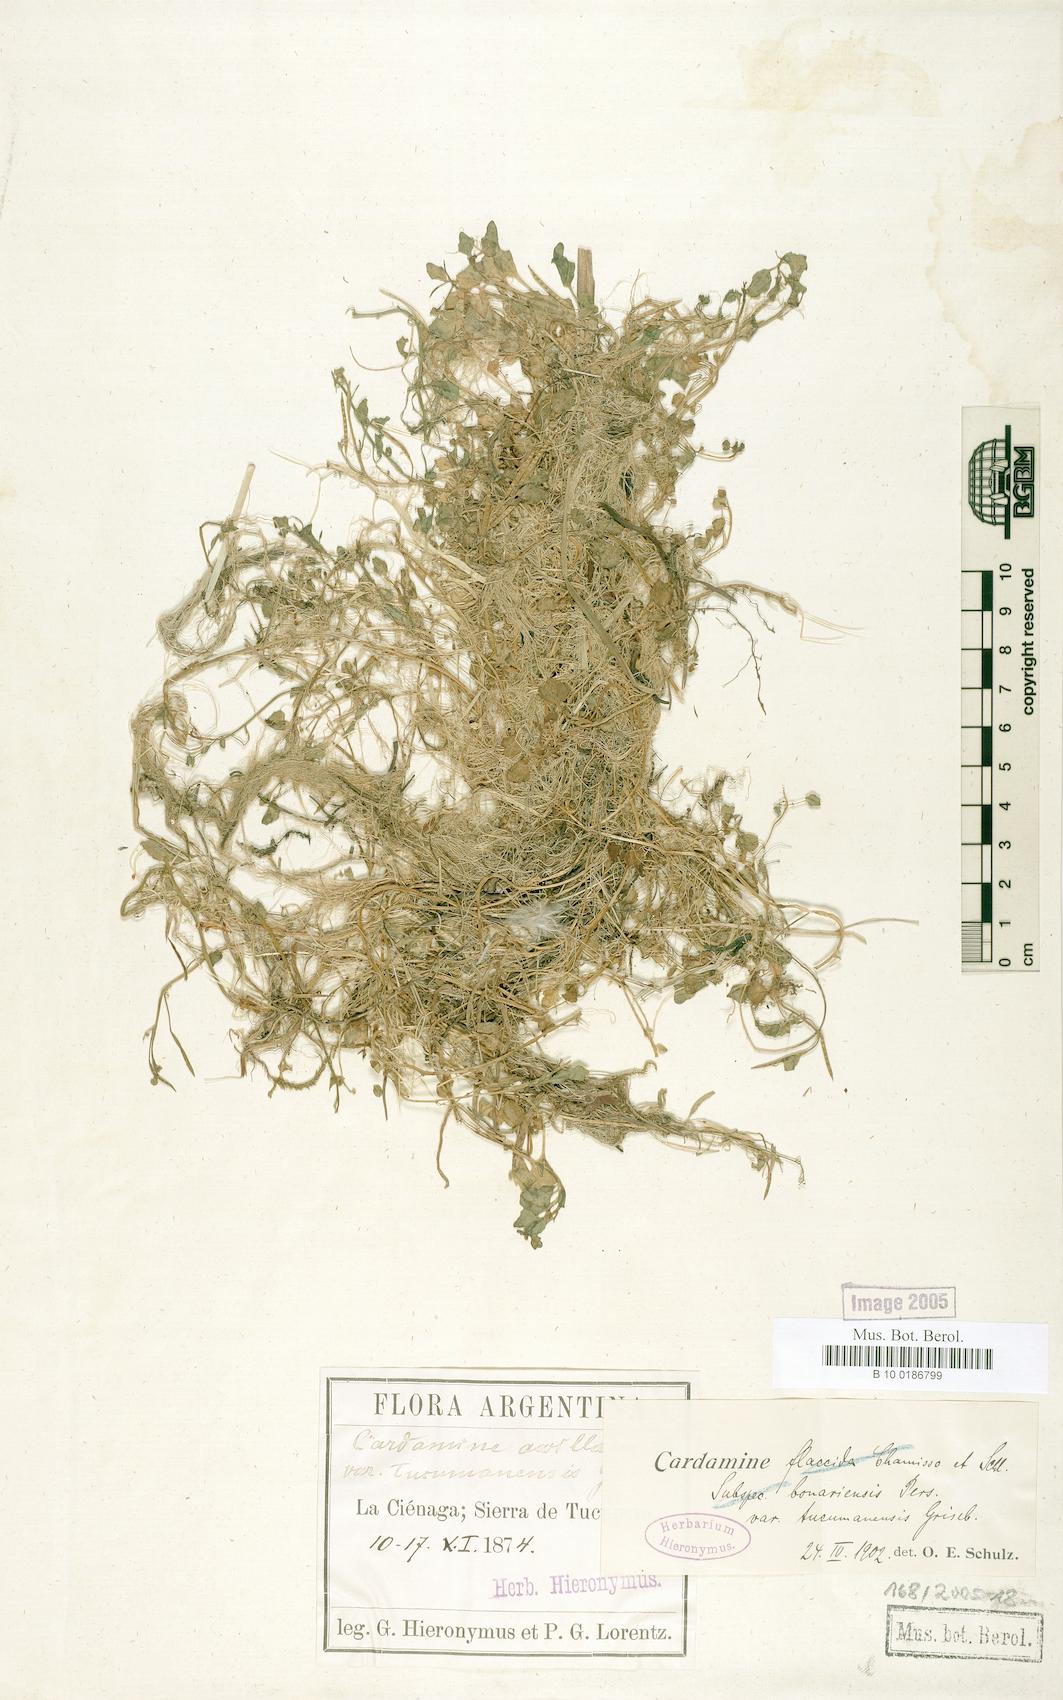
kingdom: Plantae
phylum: Tracheophyta
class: Magnoliopsida
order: Brassicales
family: Brassicaceae
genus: Cardamine
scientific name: Cardamine flaccida
